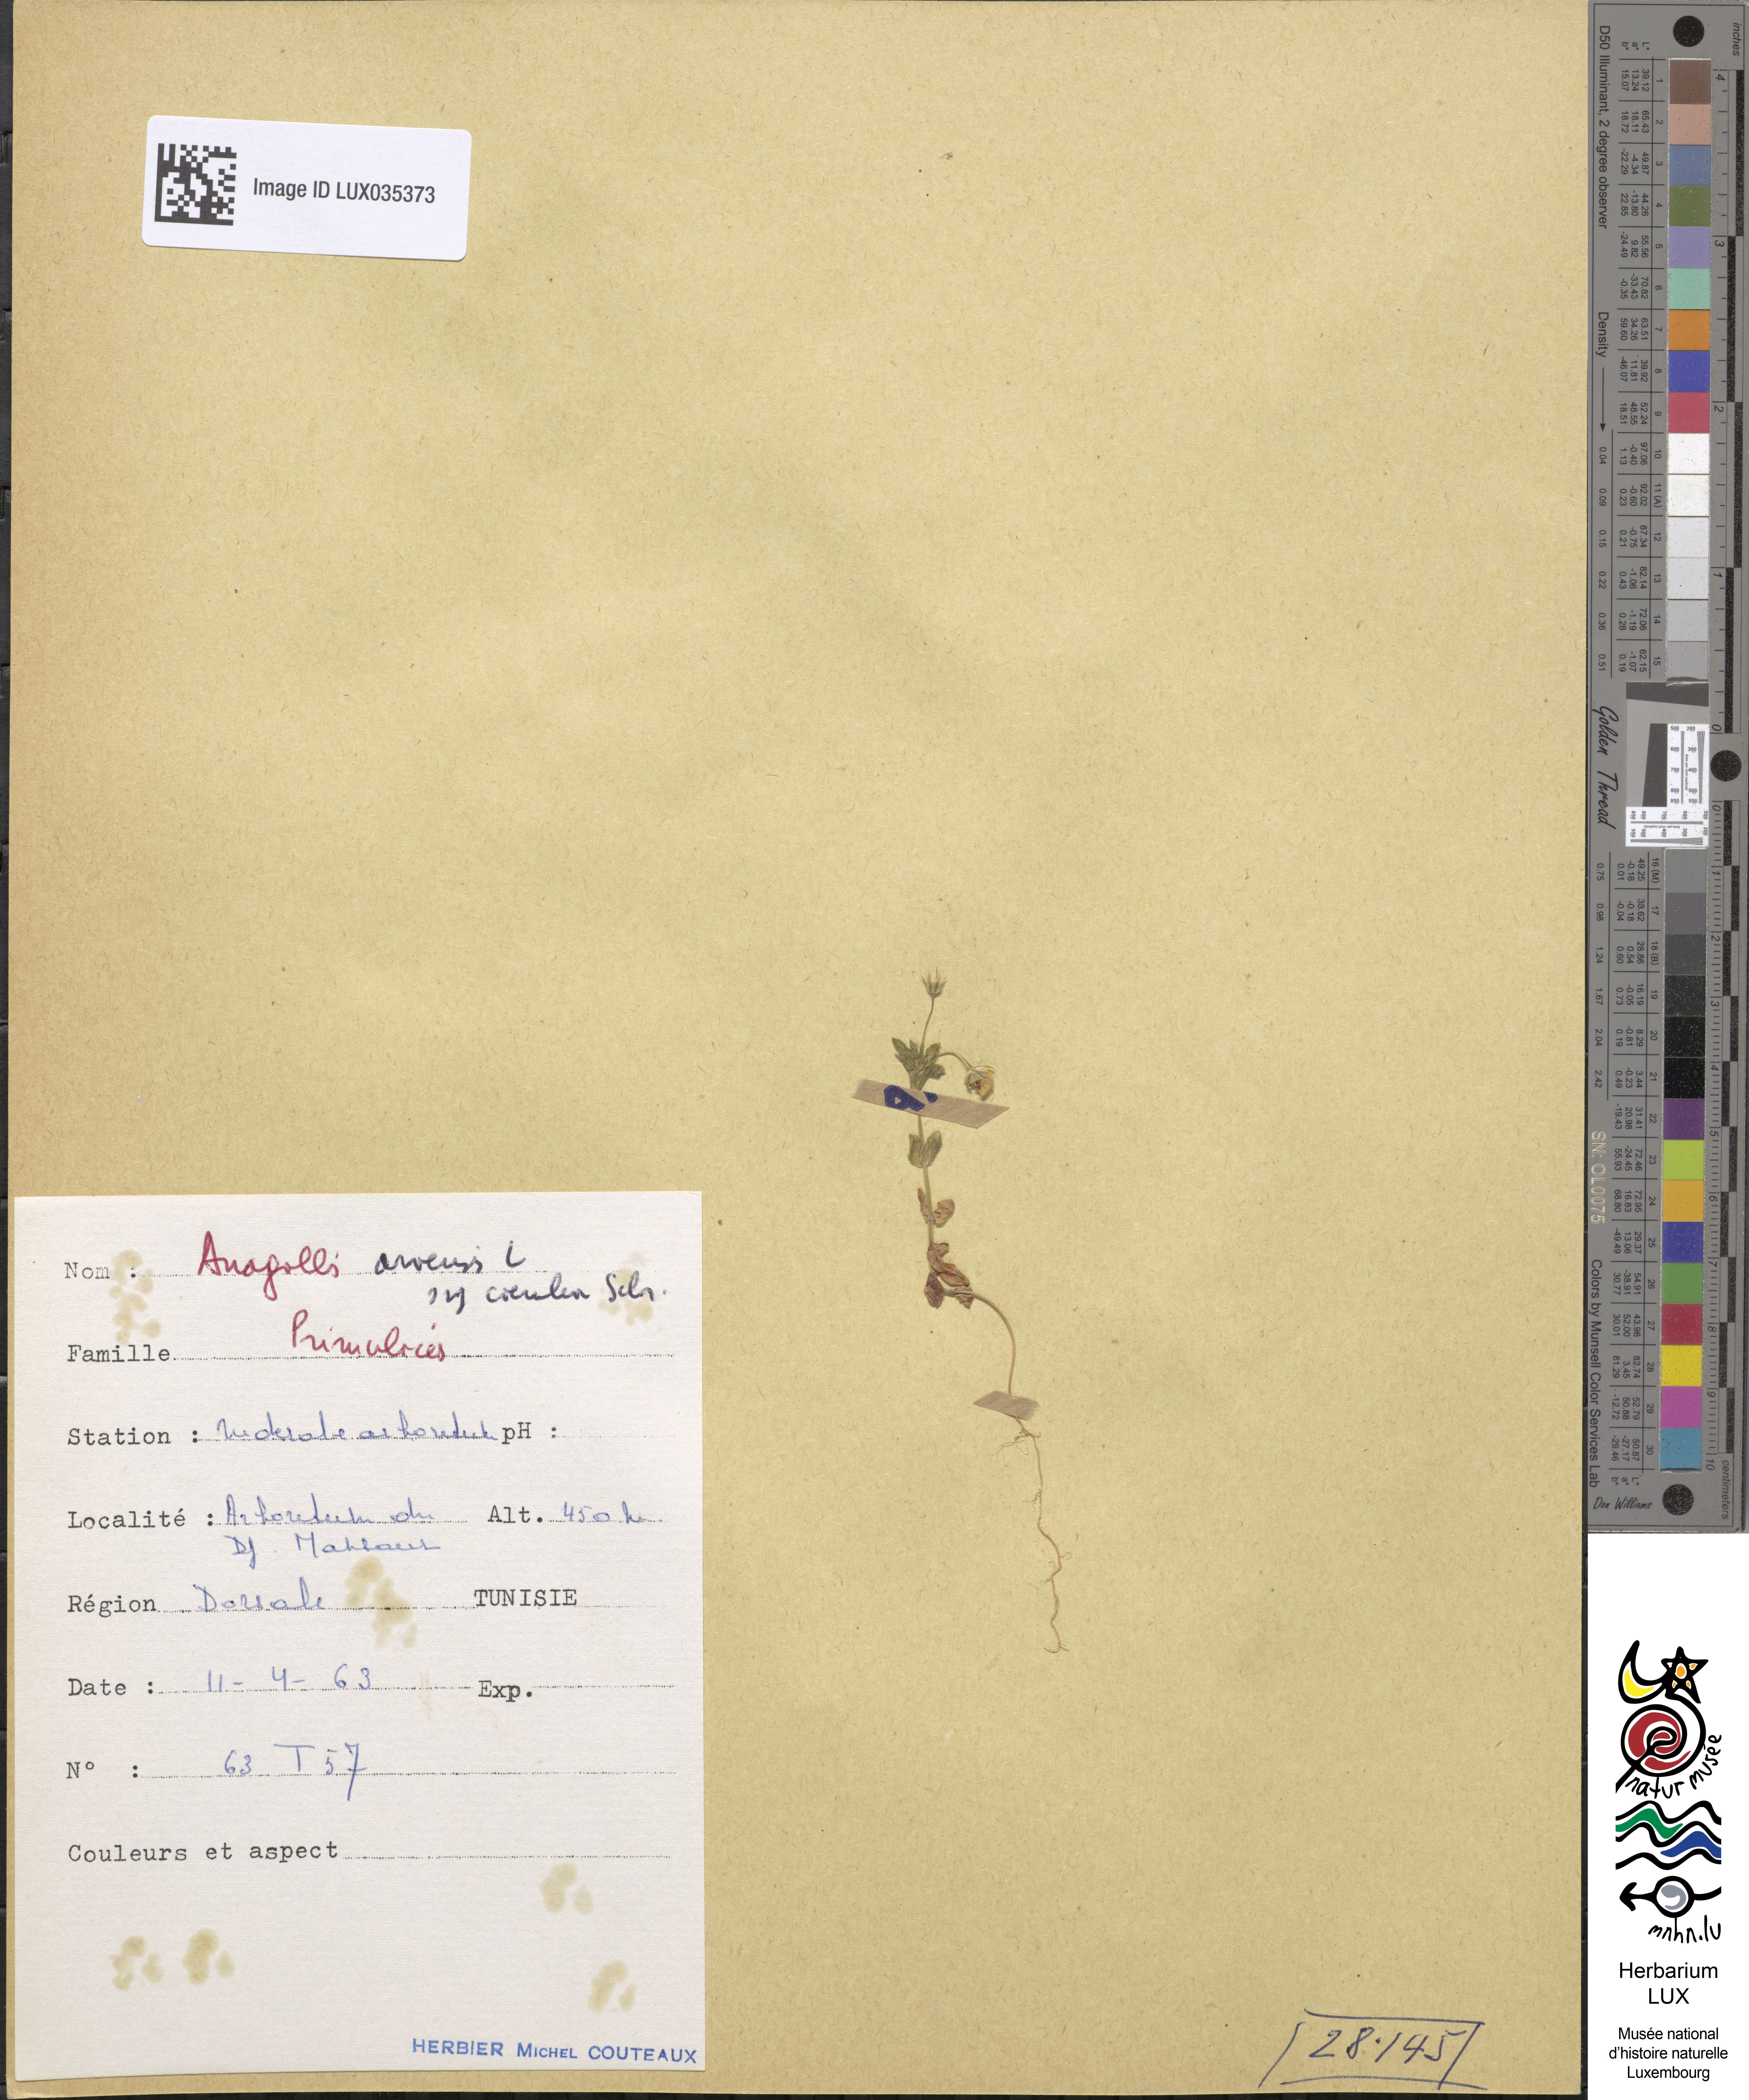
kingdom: Plantae
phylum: Tracheophyta
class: Magnoliopsida
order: Ericales
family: Primulaceae
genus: Lysimachia
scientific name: Lysimachia foemina
